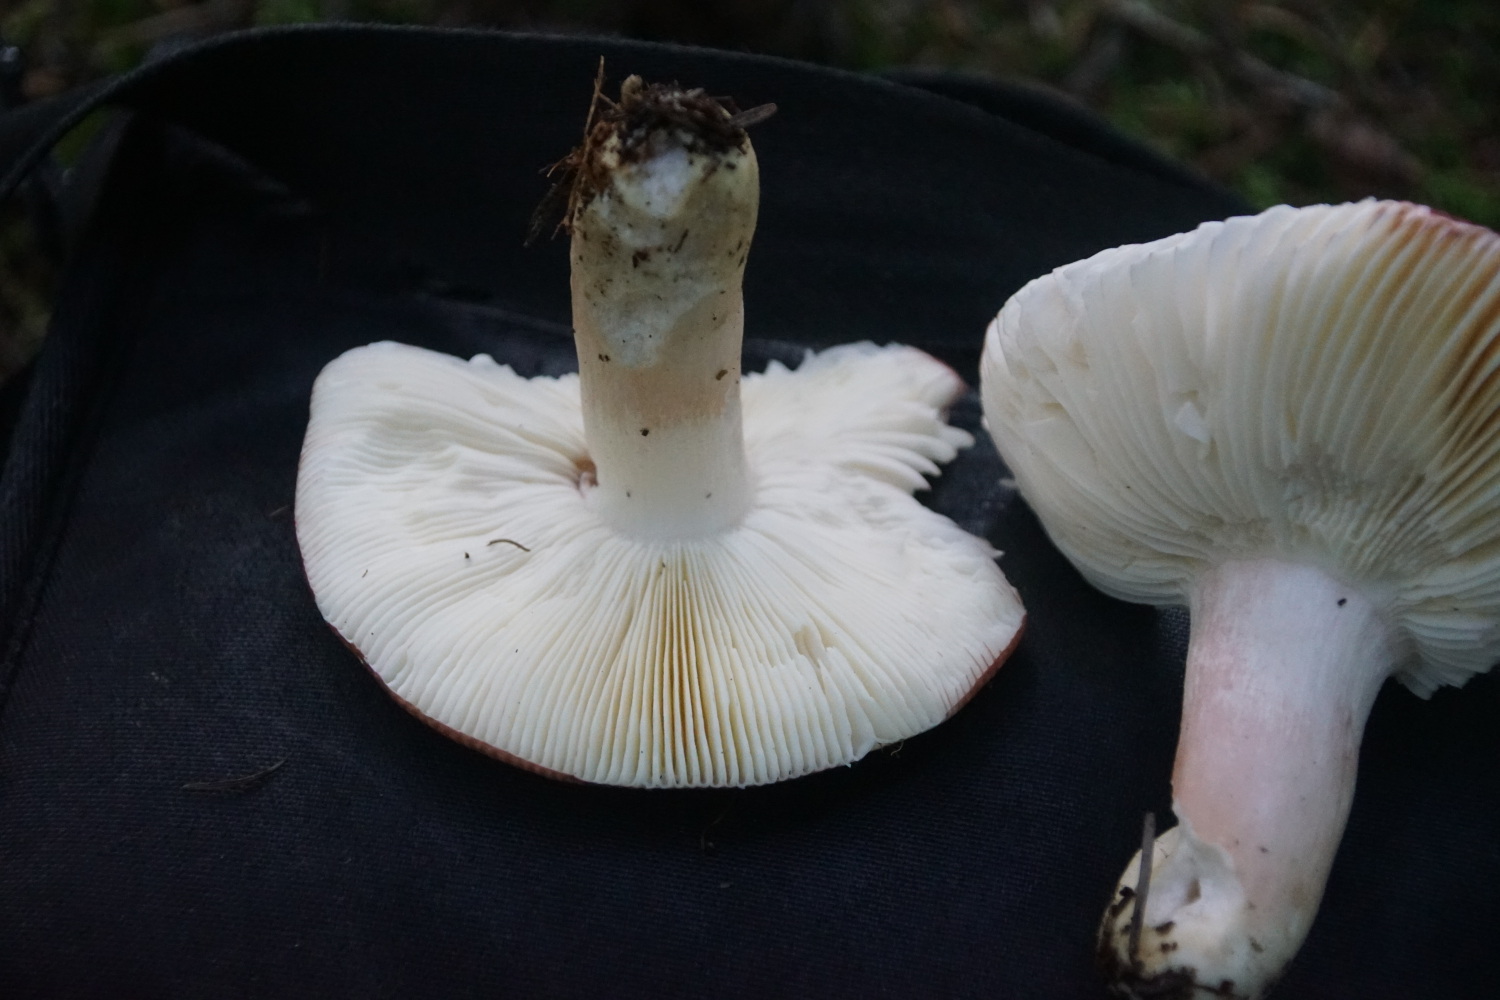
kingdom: Fungi
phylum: Basidiomycota
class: Agaricomycetes
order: Russulales
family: Russulaceae
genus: Russula
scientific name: Russula paludosa
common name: prægtig skørhat
